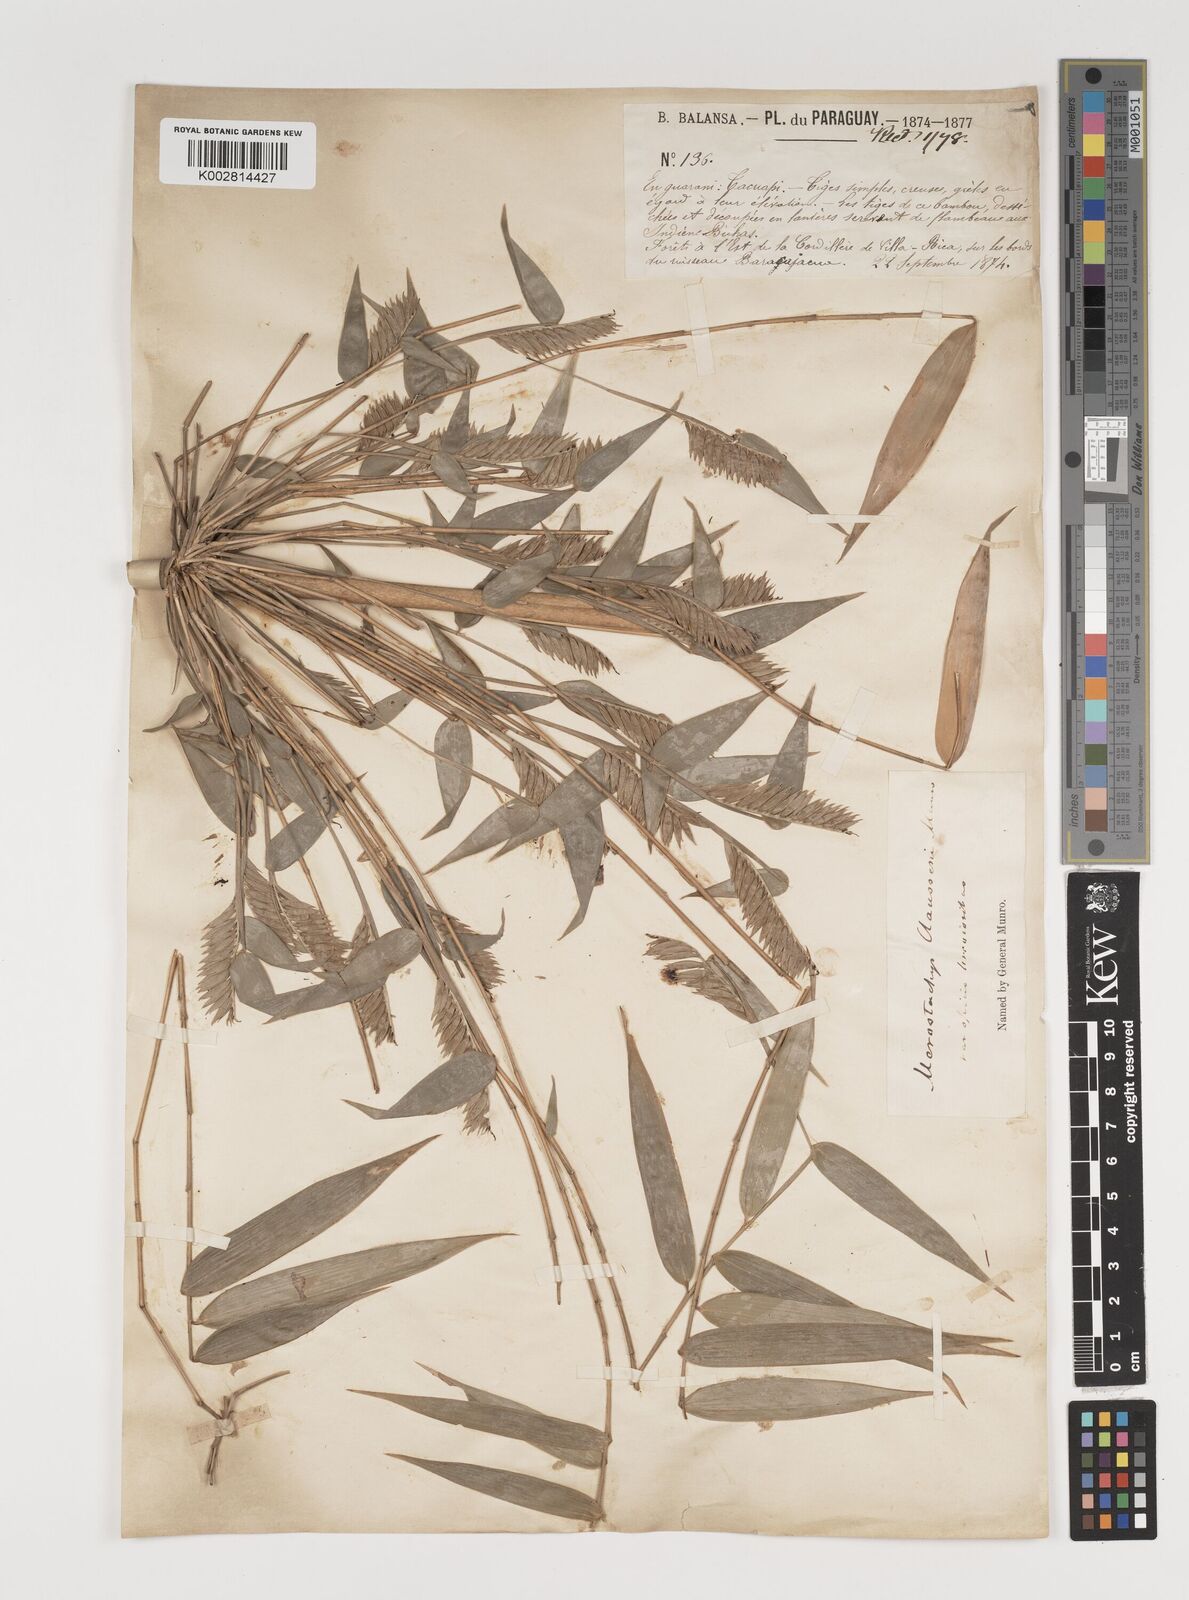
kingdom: Plantae
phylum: Tracheophyta
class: Liliopsida
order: Poales
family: Poaceae
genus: Merostachys
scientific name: Merostachys multiramea
